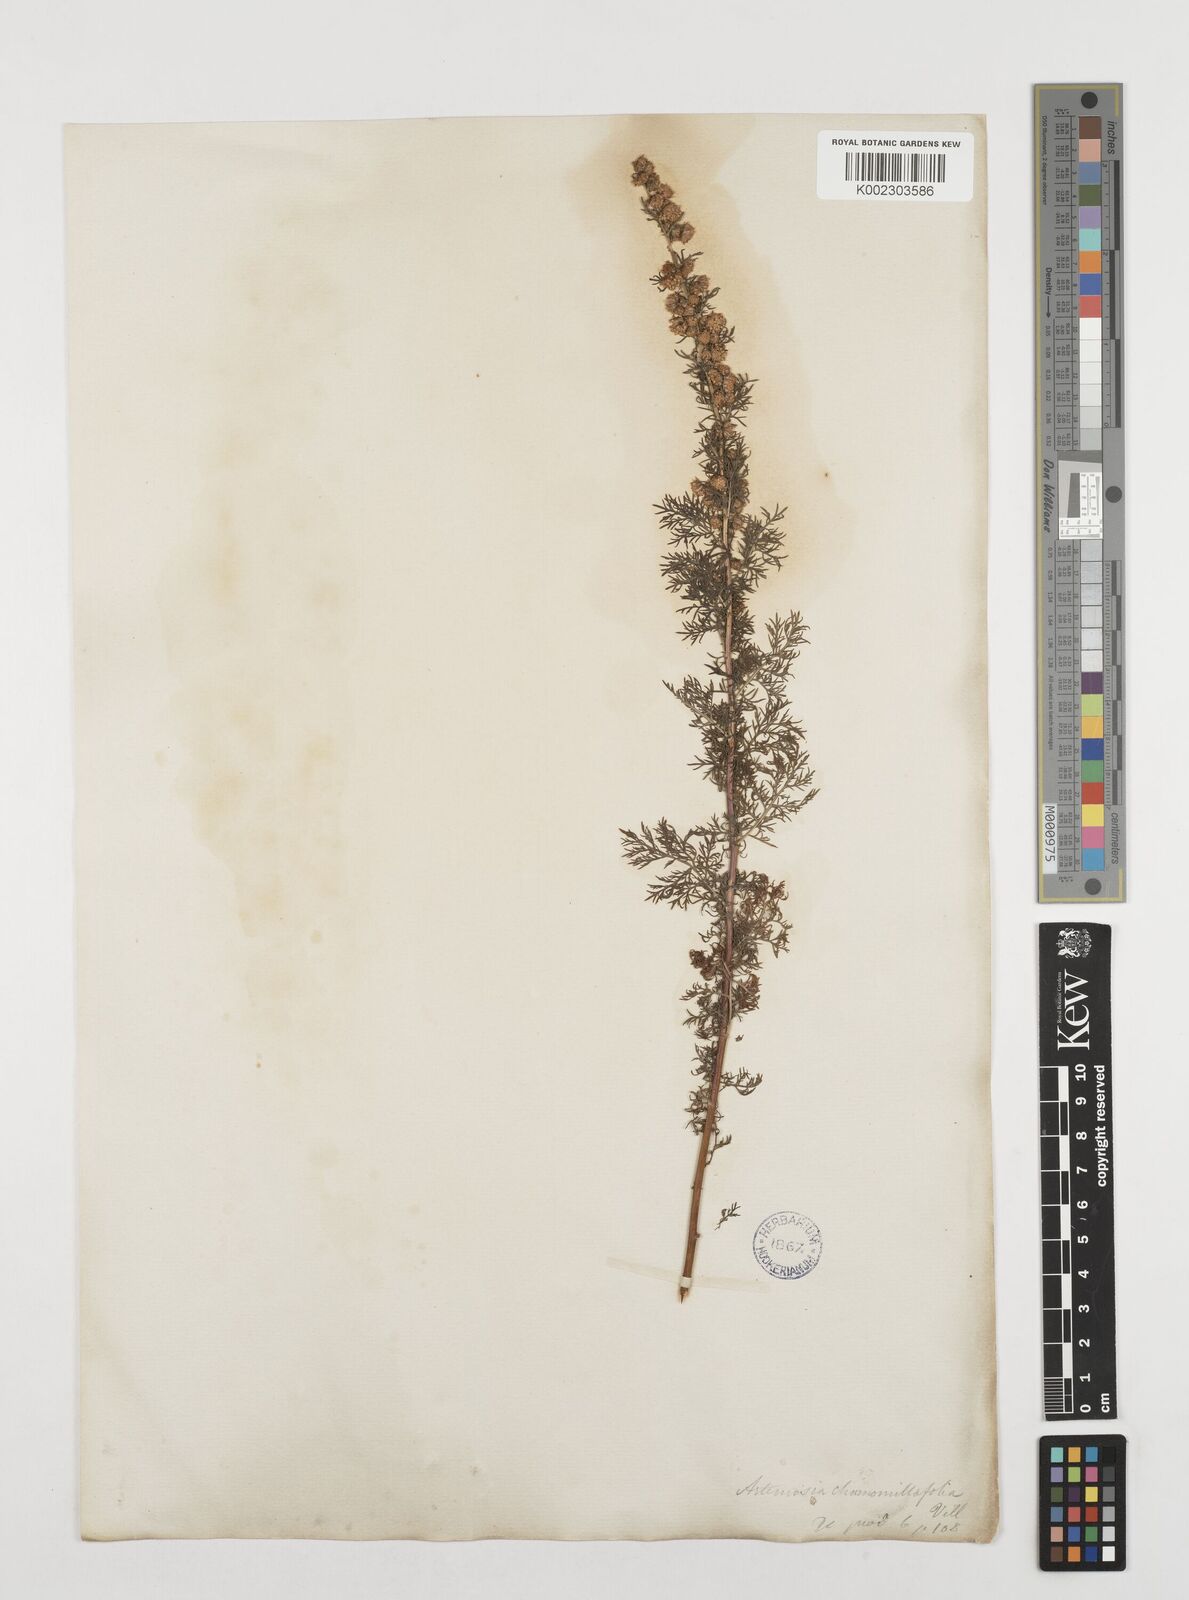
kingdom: Plantae
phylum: Tracheophyta
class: Magnoliopsida
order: Asterales
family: Asteraceae
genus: Artemisia
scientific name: Artemisia chamaemelifolia
